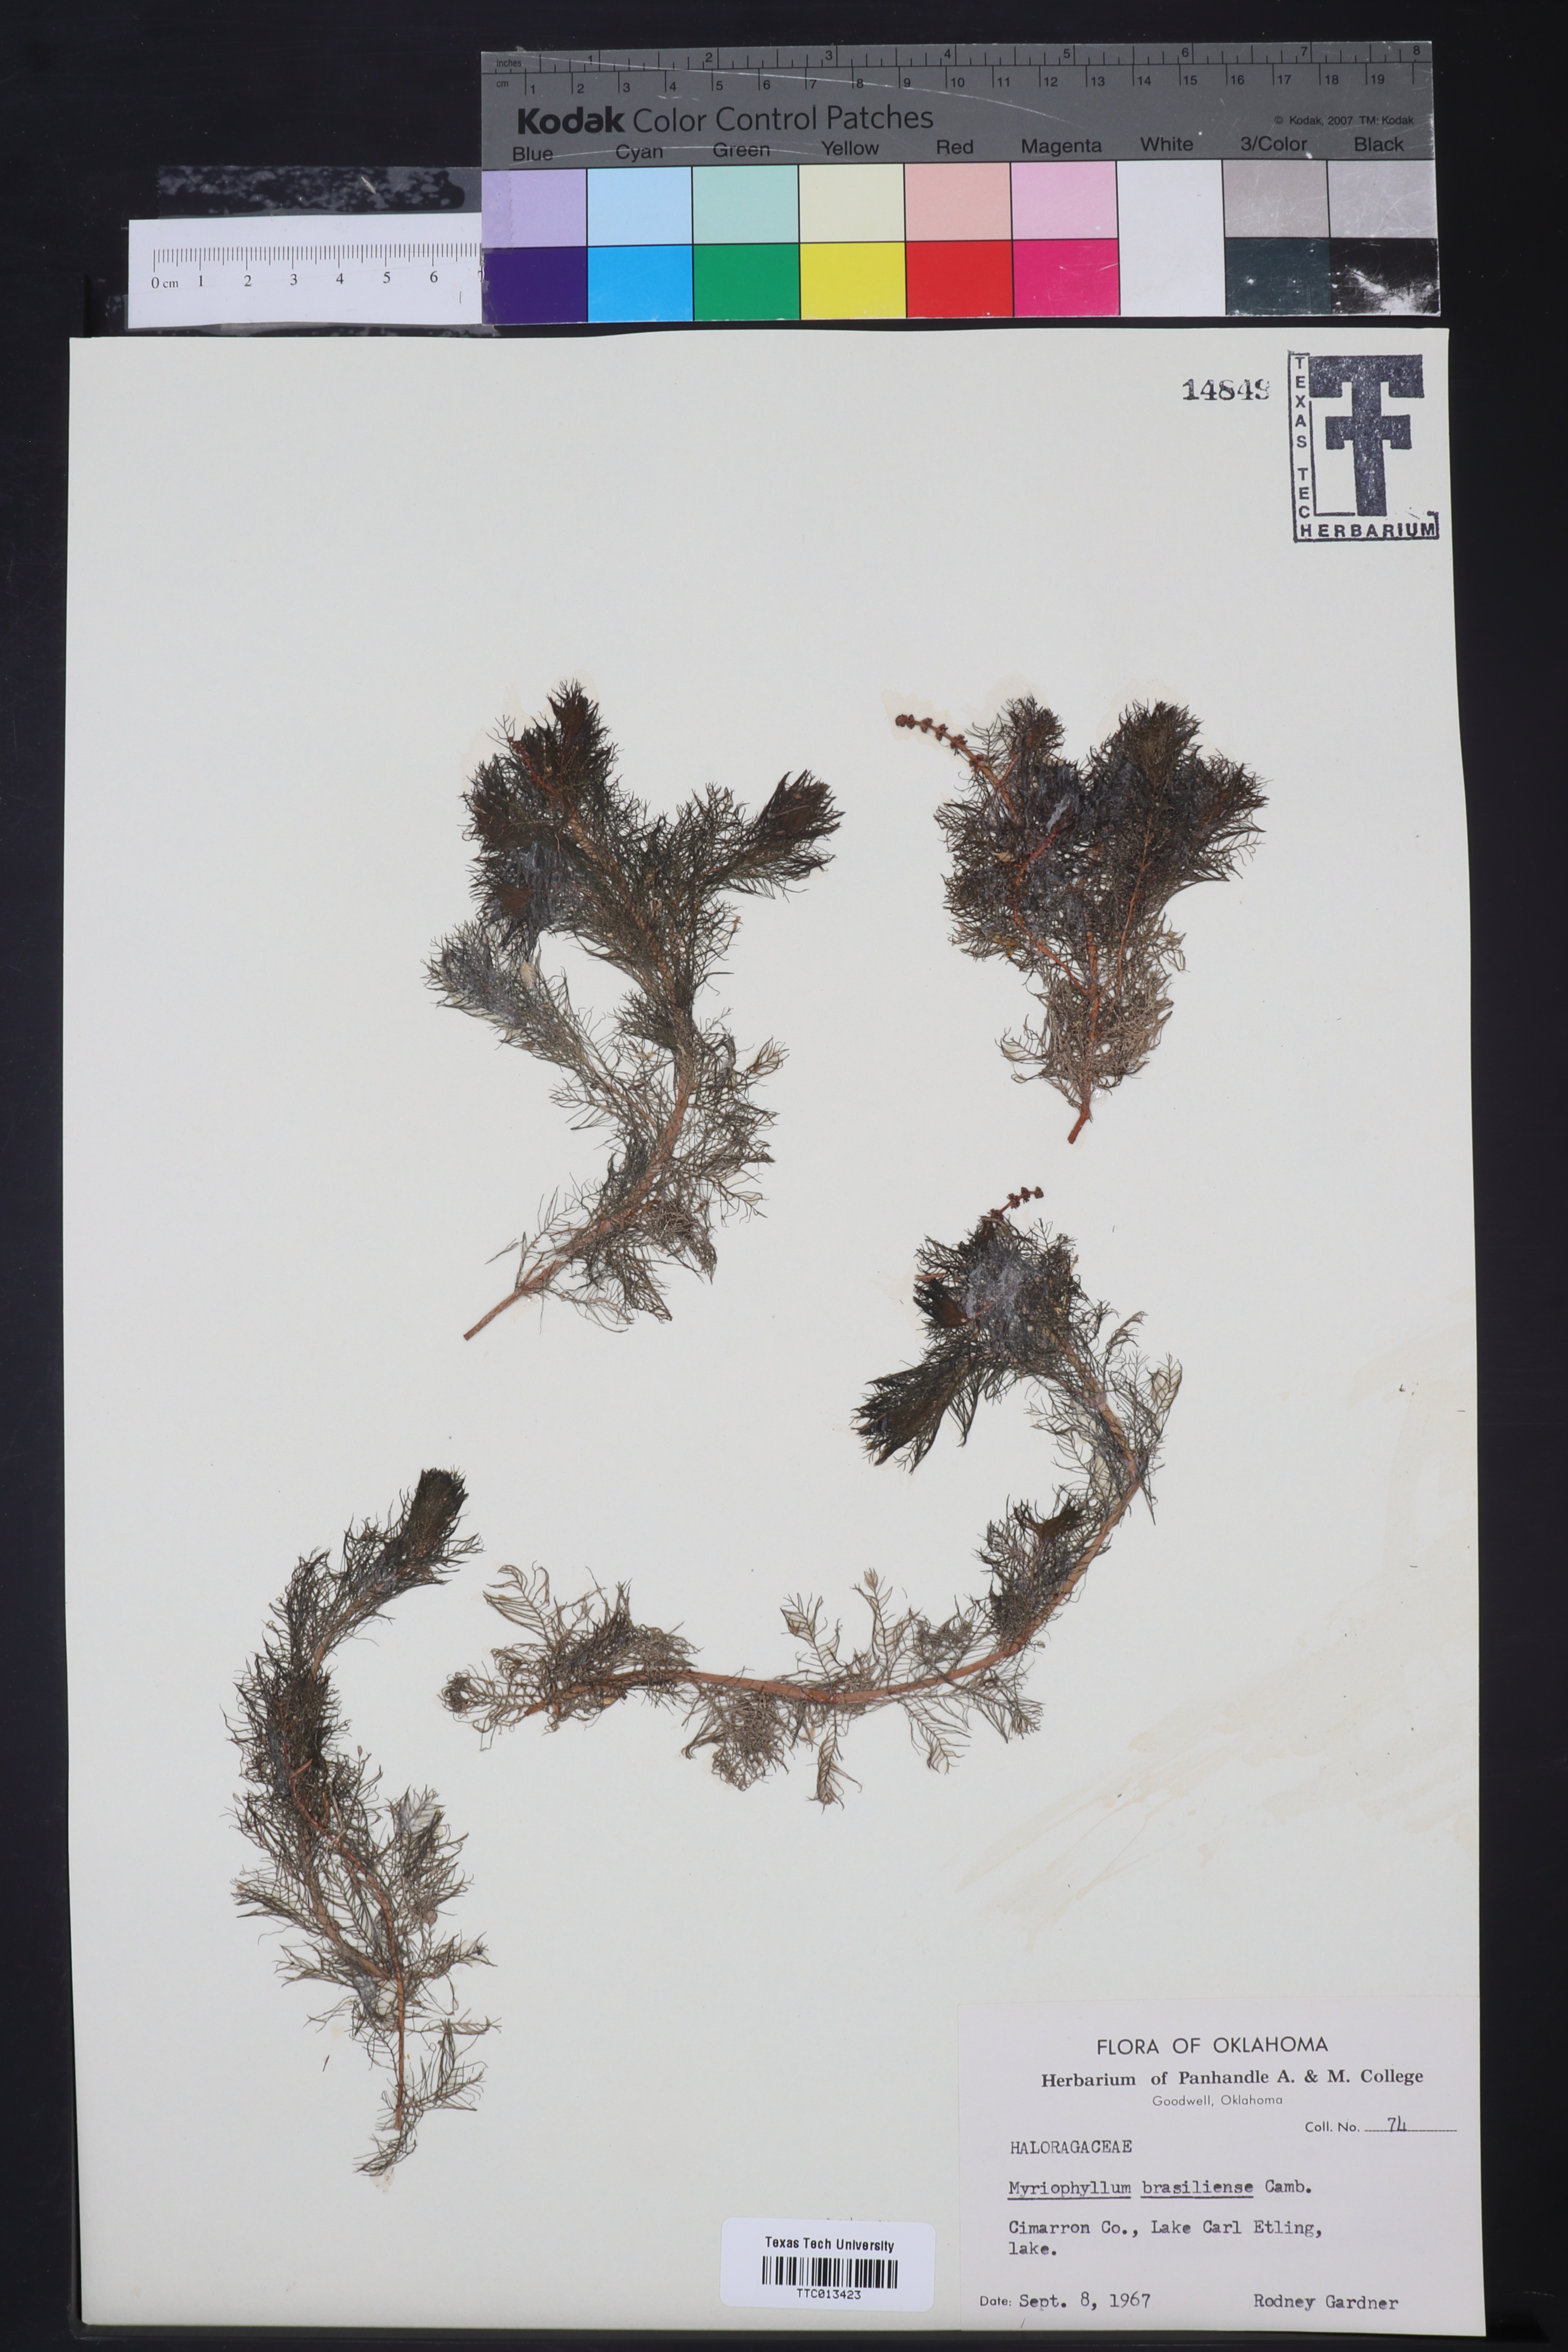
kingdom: Plantae
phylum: Tracheophyta
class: Magnoliopsida
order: Saxifragales
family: Haloragaceae
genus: Myriophyllum
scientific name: Myriophyllum aquaticum
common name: Parrot's feather
